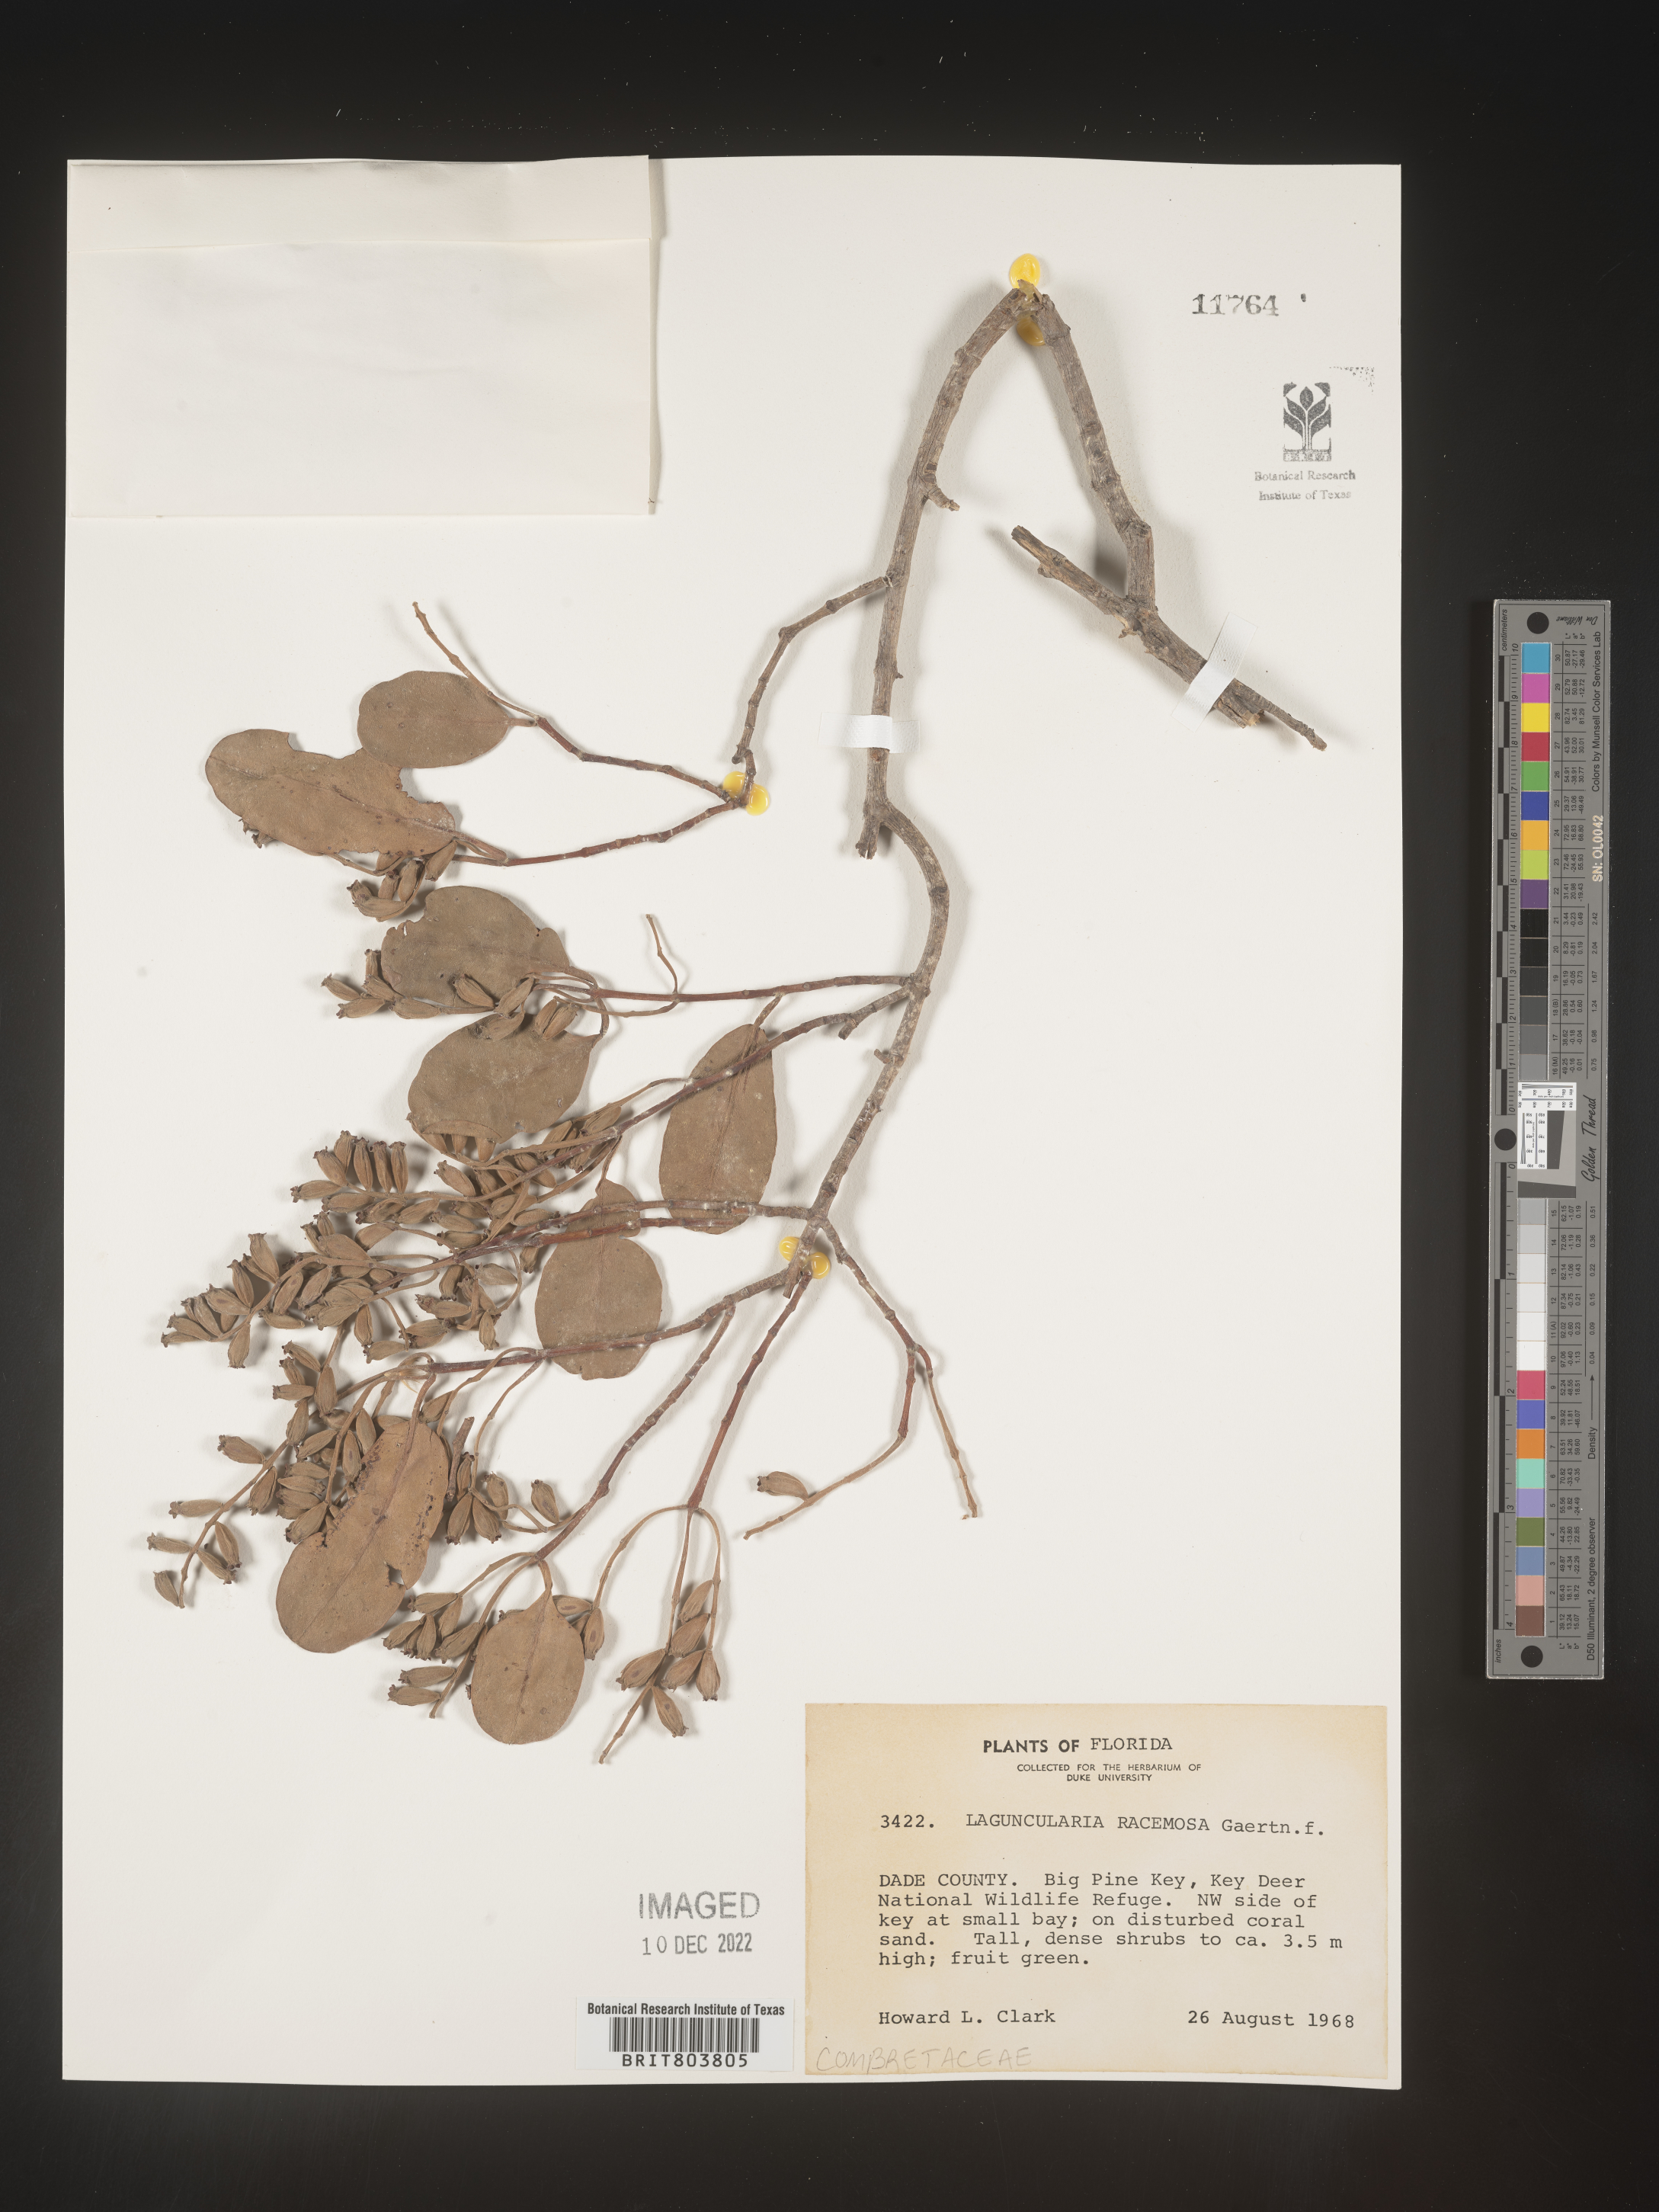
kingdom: Plantae
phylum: Tracheophyta
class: Magnoliopsida
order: Myrtales
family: Combretaceae
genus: Laguncularia
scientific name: Laguncularia
